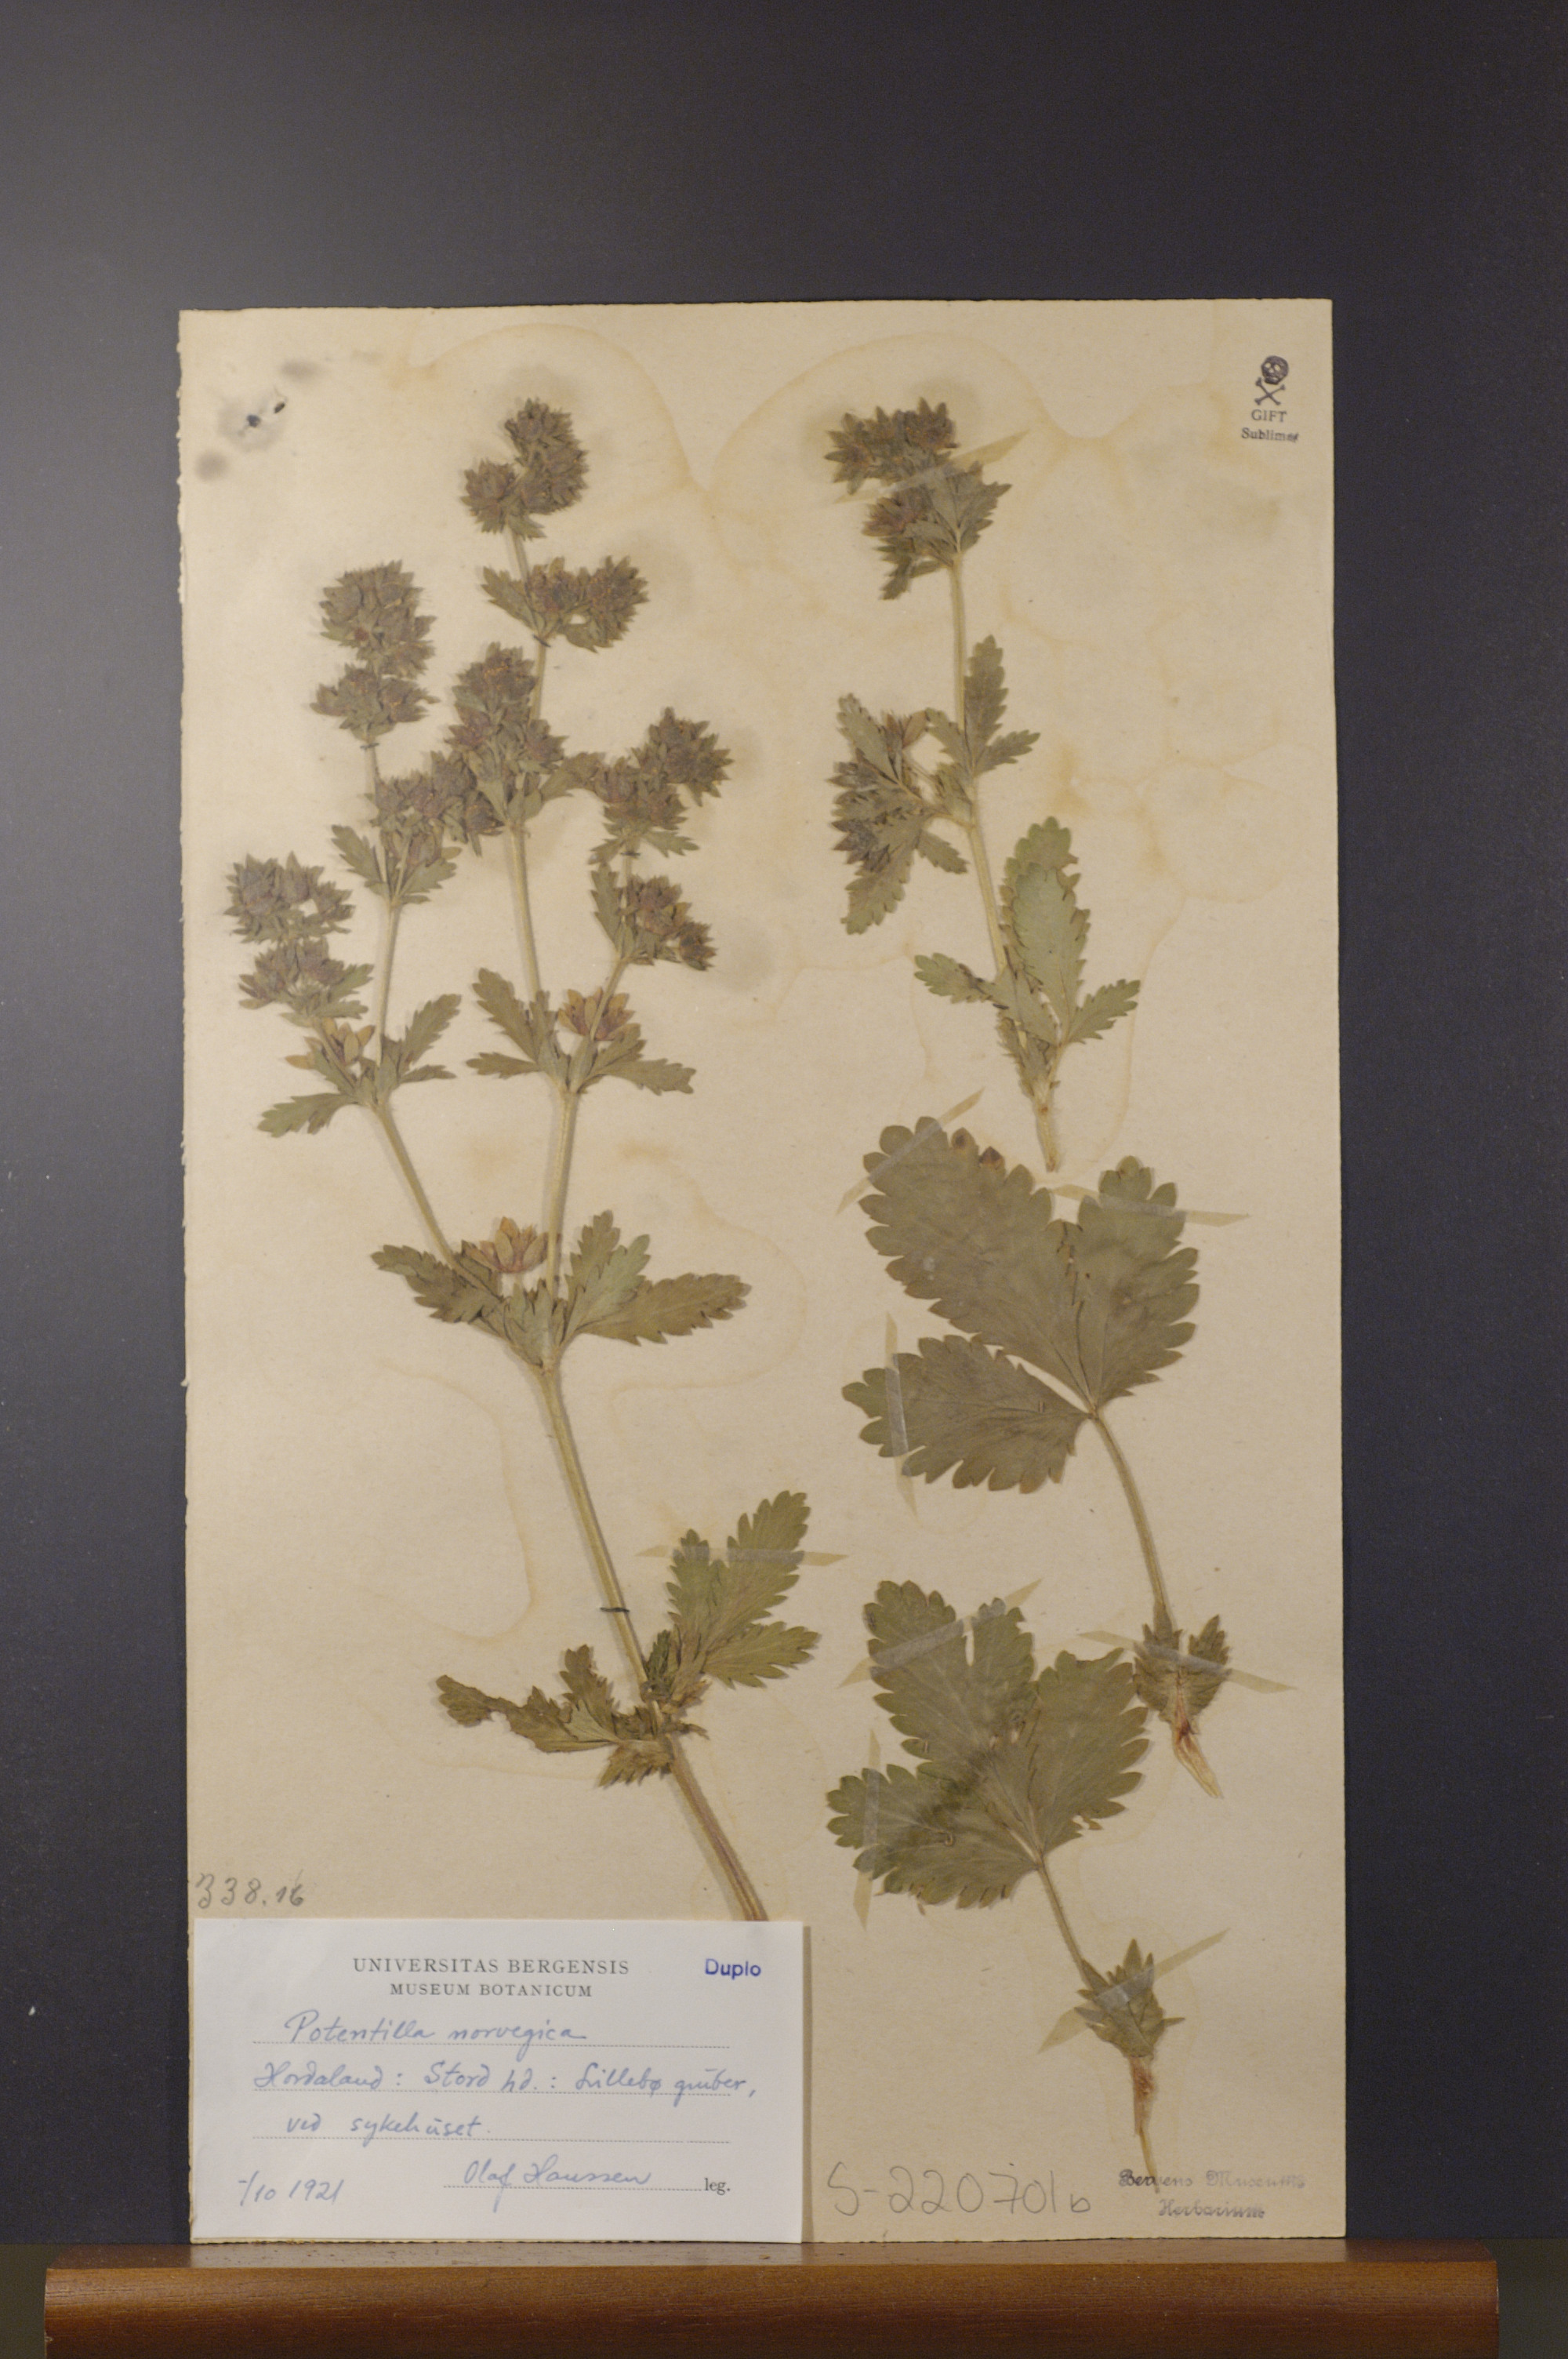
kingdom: Plantae
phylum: Tracheophyta
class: Magnoliopsida
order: Rosales
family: Rosaceae
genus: Potentilla
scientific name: Potentilla norvegica
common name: Ternate-leaved cinquefoil
